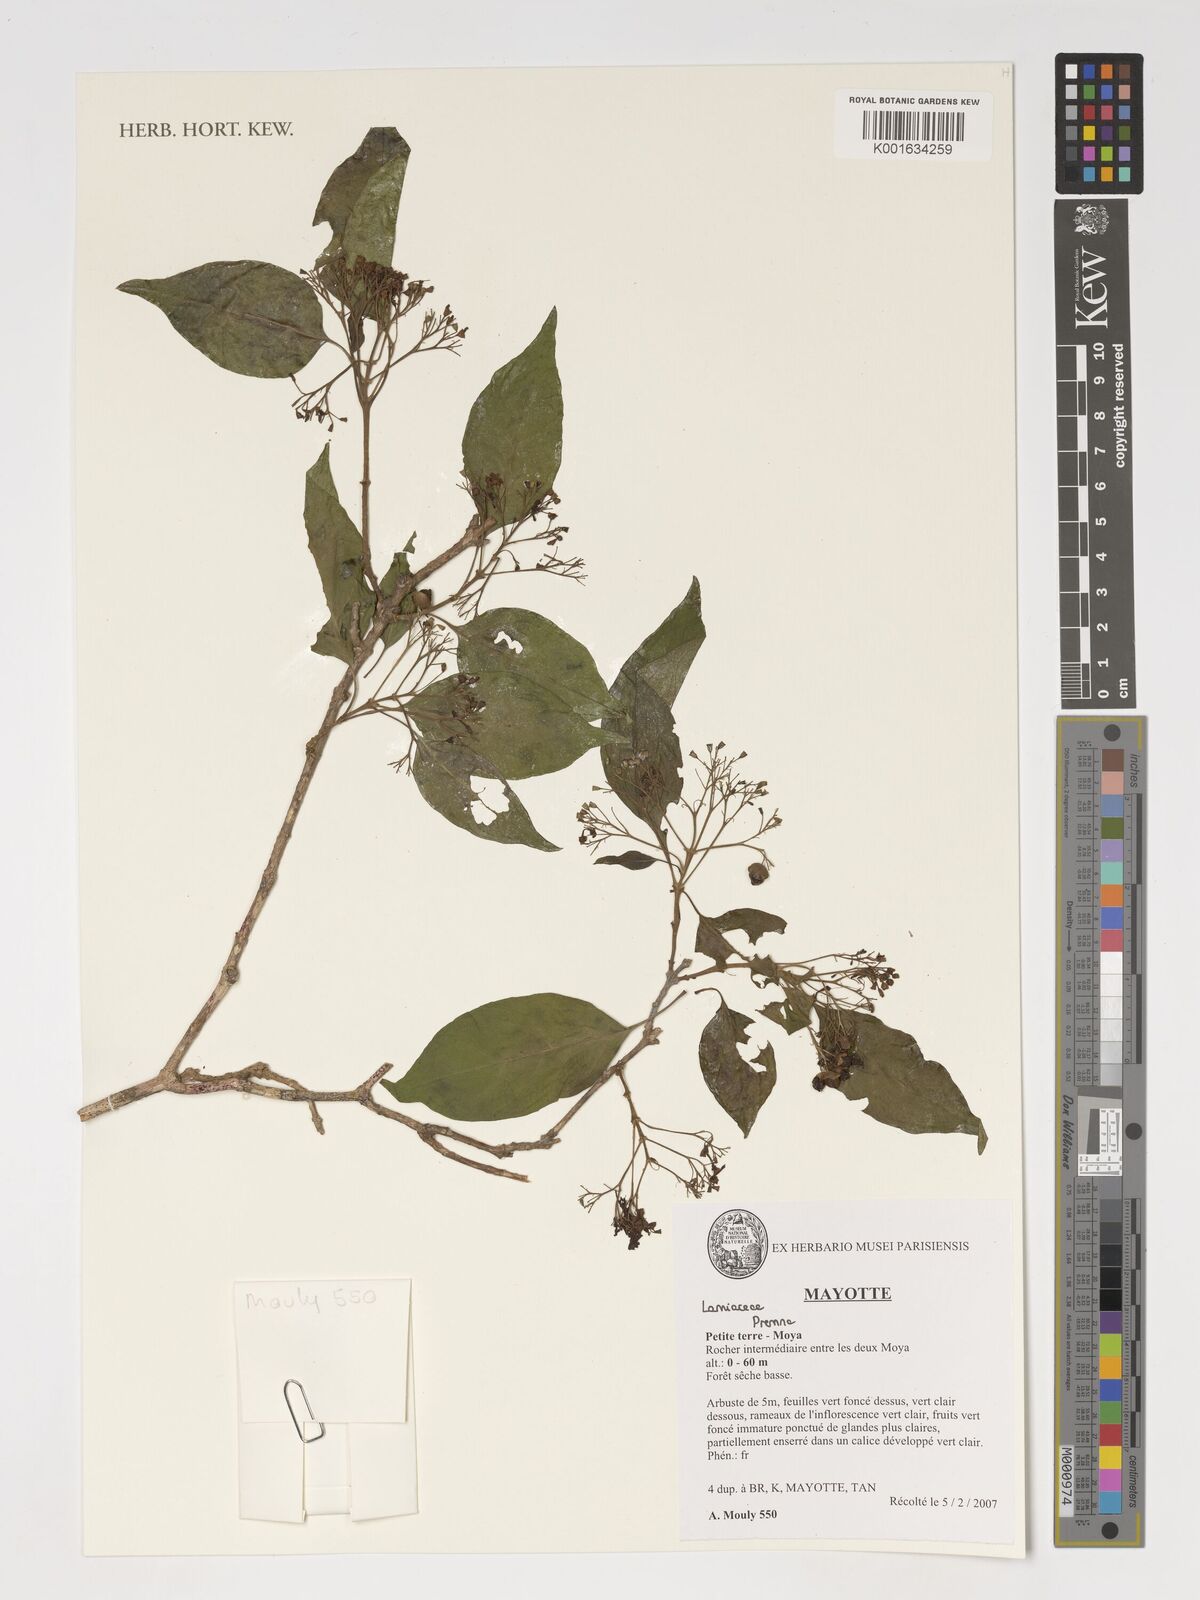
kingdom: Plantae
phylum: Tracheophyta
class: Magnoliopsida
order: Lamiales
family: Lamiaceae
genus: Premna
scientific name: Premna
